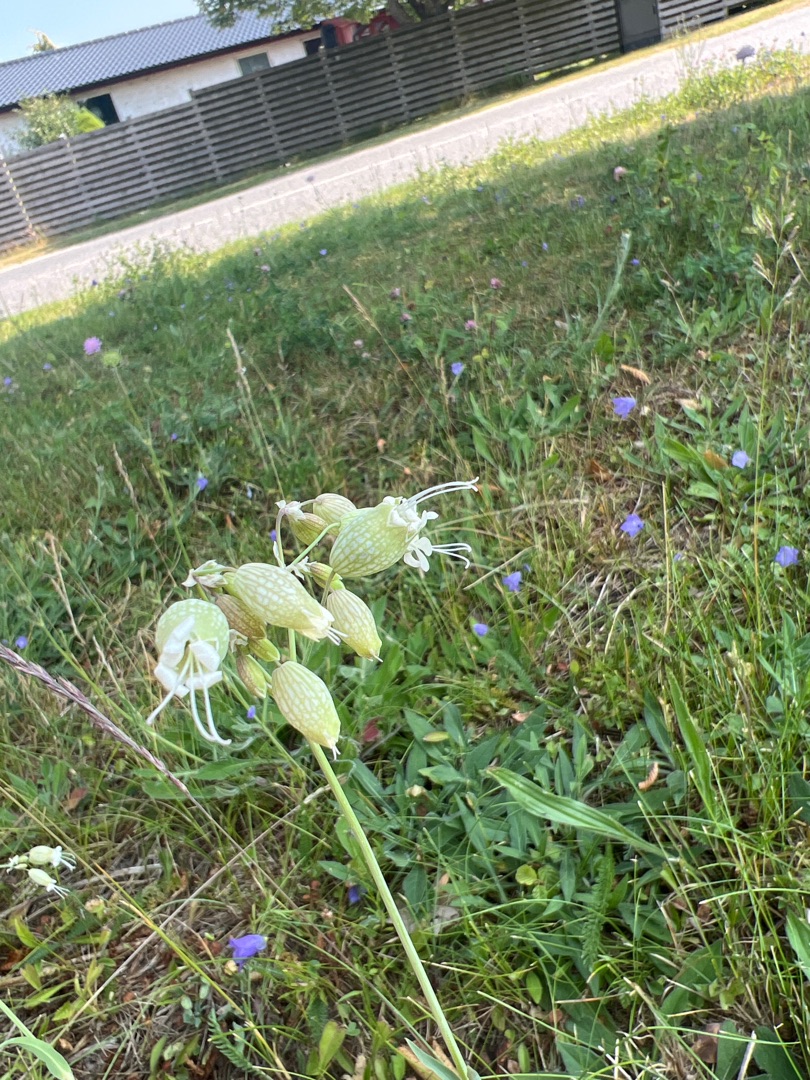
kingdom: Plantae
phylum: Tracheophyta
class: Magnoliopsida
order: Caryophyllales
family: Caryophyllaceae
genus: Silene
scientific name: Silene vulgaris
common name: Blæresmælde
